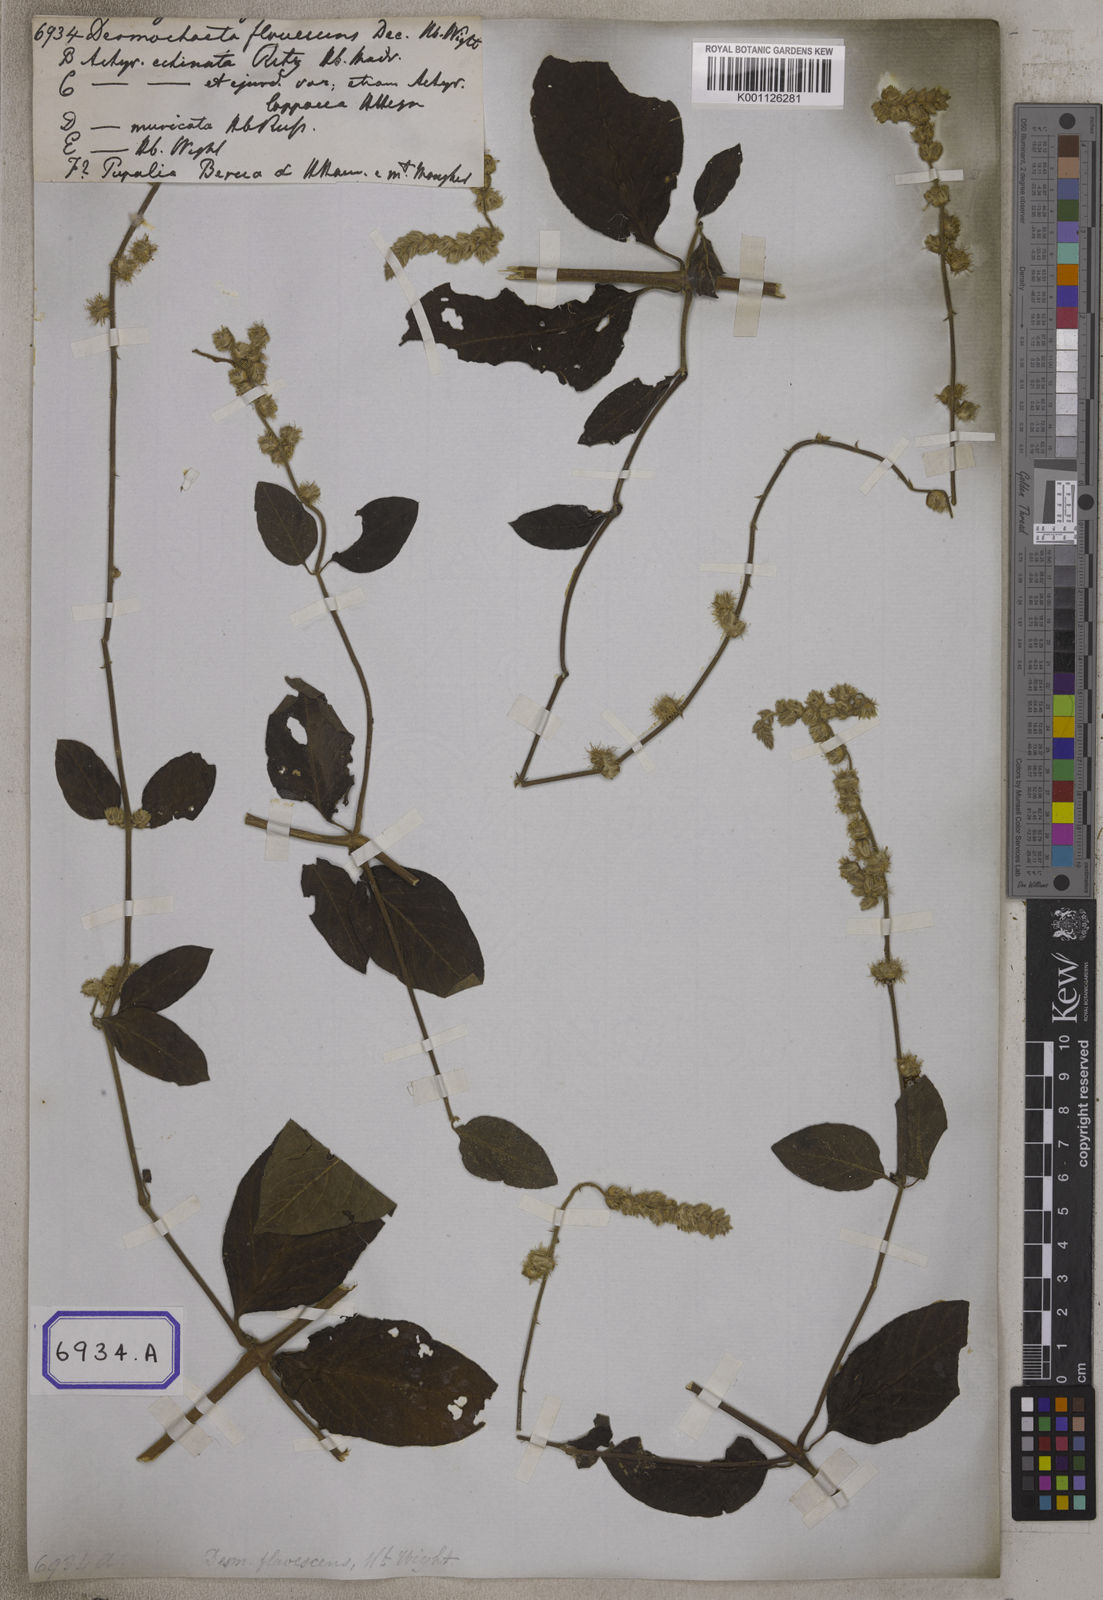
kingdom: Plantae
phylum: Tracheophyta
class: Magnoliopsida
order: Caryophyllales
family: Amaranthaceae
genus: Pupalia
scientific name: Pupalia lappacea
